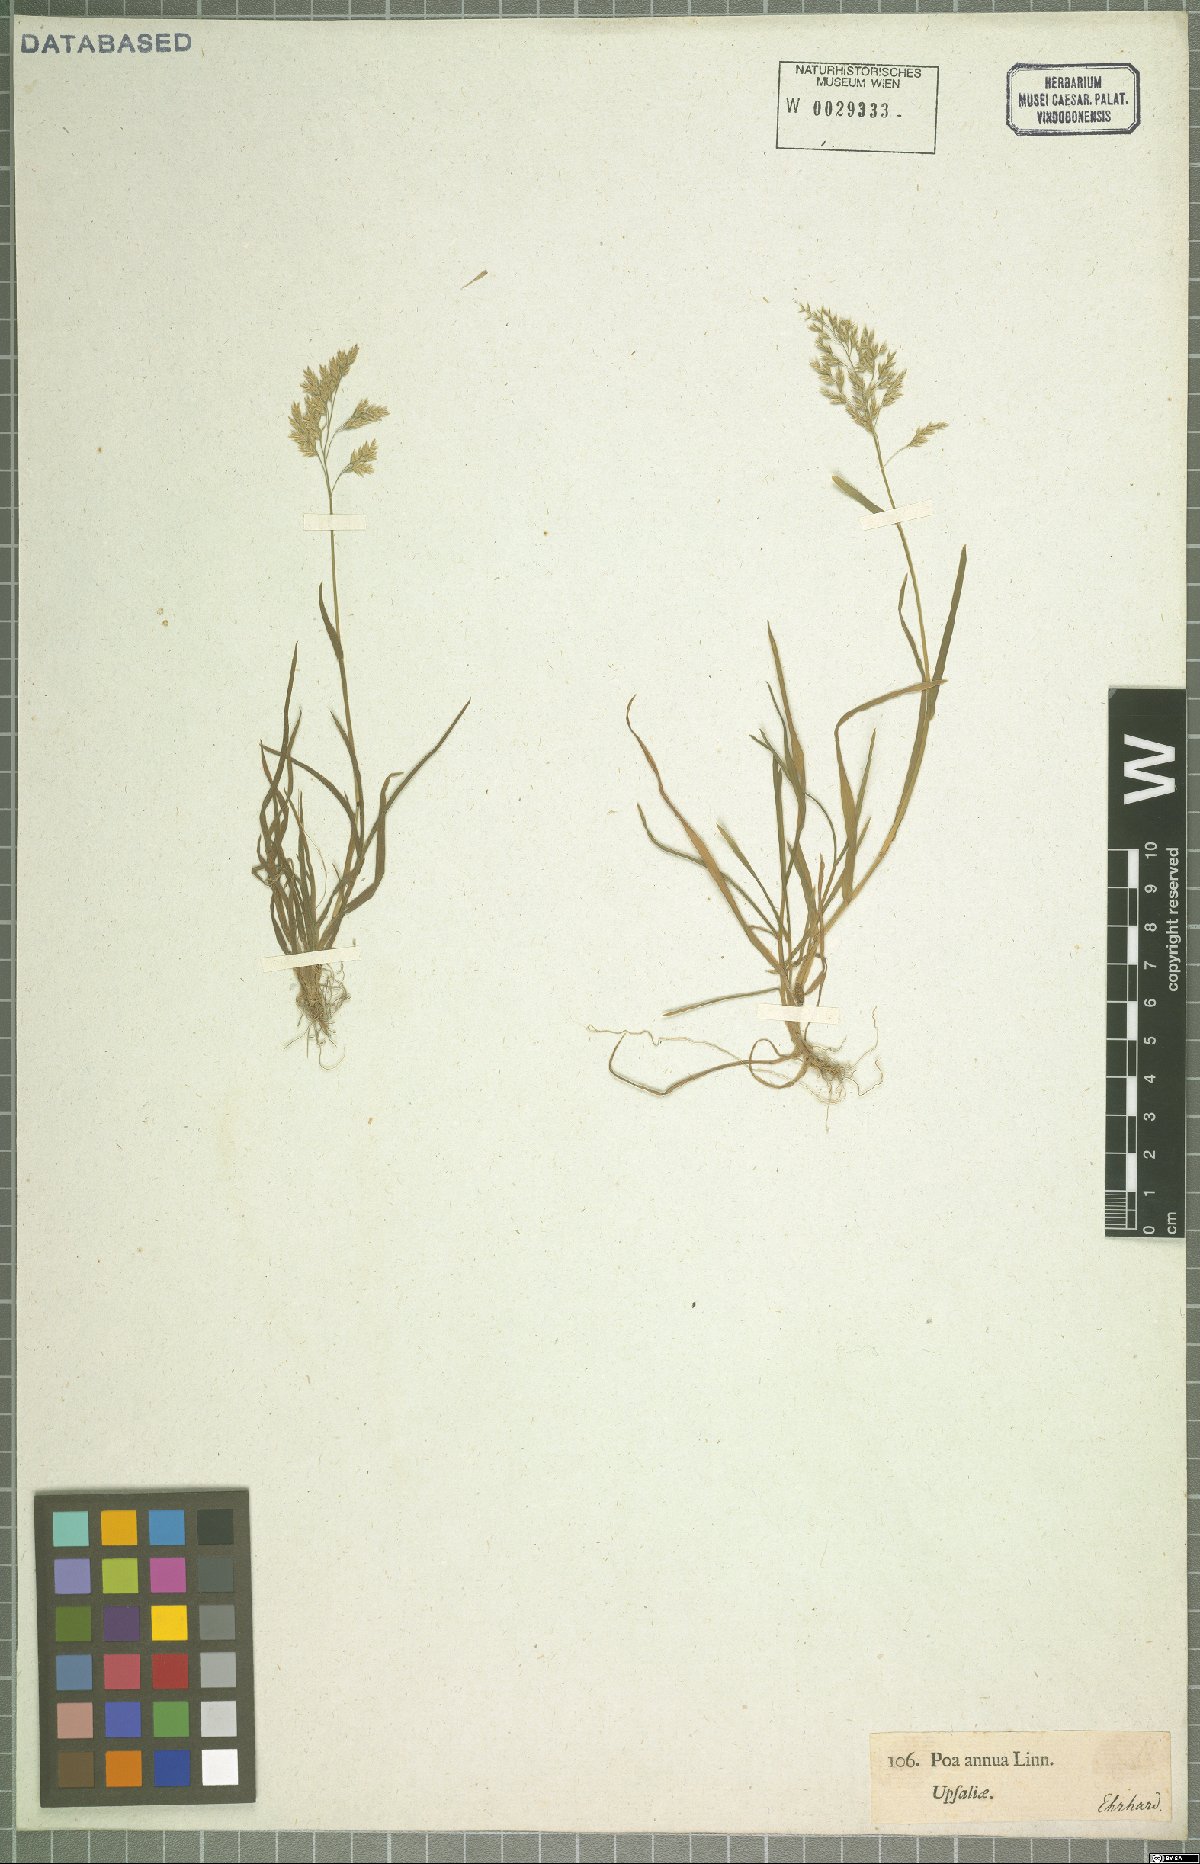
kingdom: Plantae
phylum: Tracheophyta
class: Liliopsida
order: Poales
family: Poaceae
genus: Poa
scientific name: Poa annua
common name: Annual bluegrass
